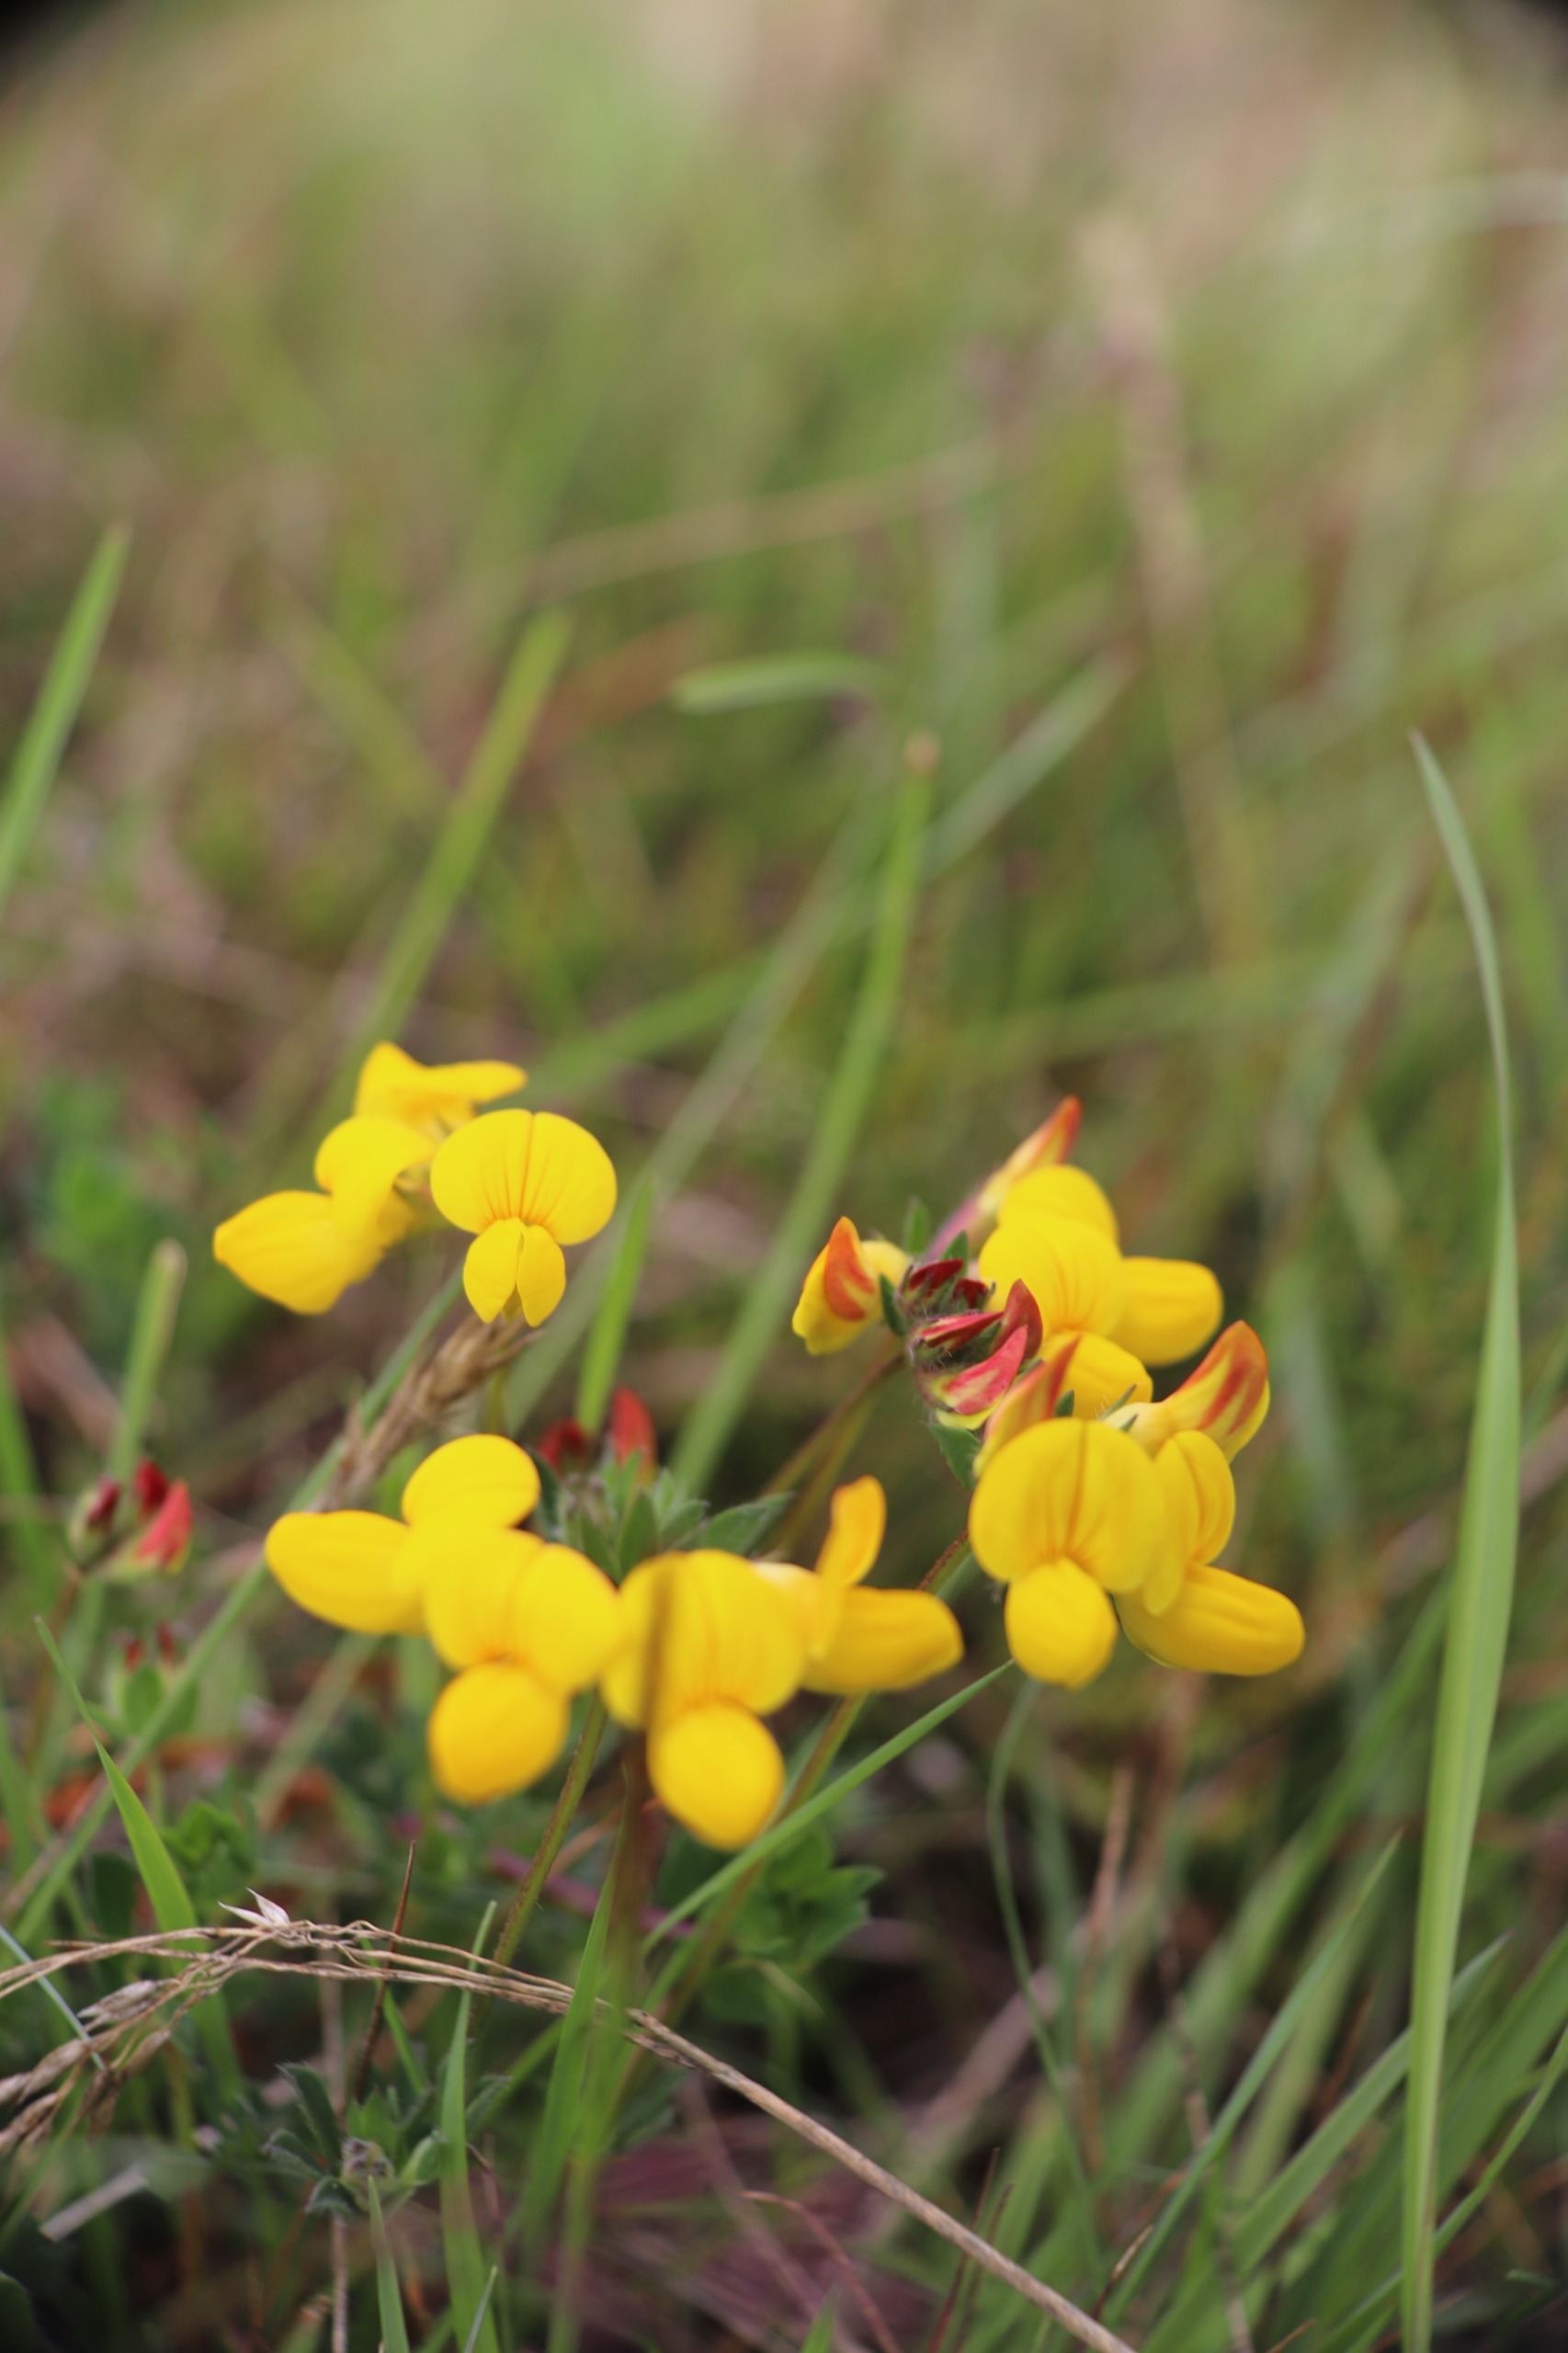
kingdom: Plantae
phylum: Tracheophyta
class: Magnoliopsida
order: Fabales
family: Fabaceae
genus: Lotus
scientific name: Lotus corniculatus
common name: Almindelig kællingetand
